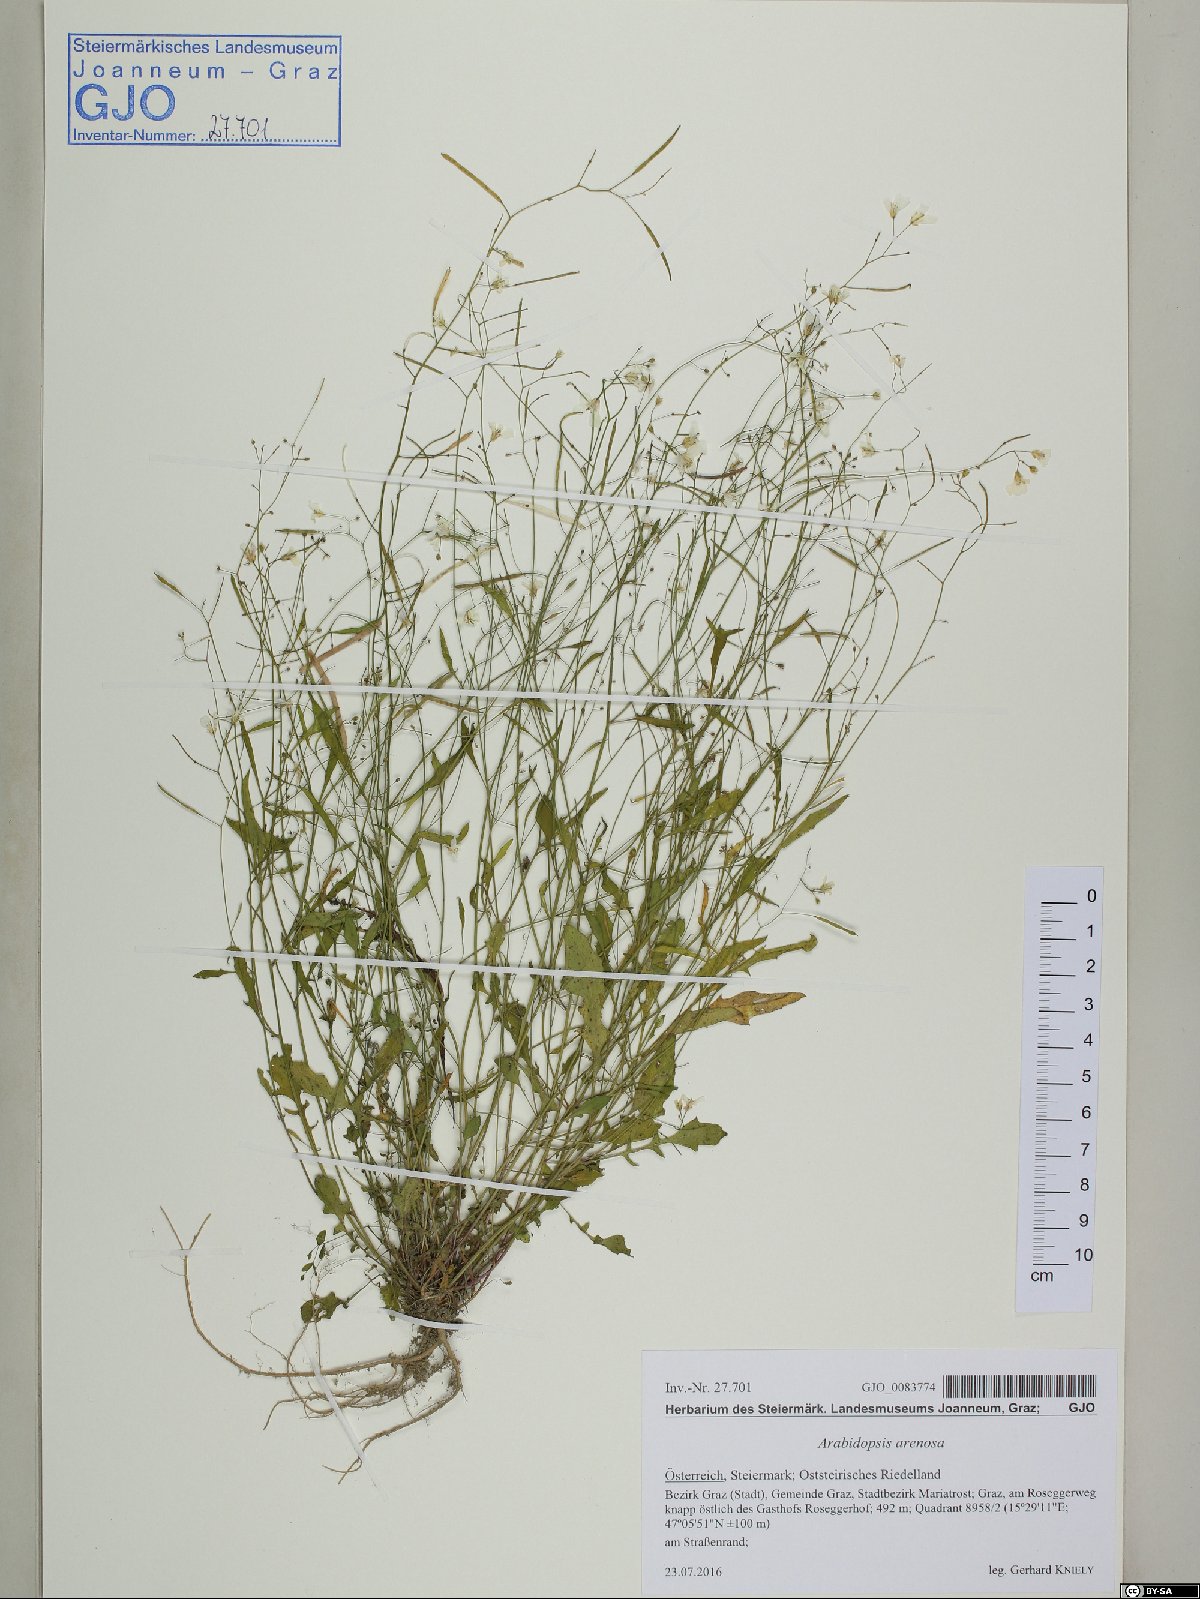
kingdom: Plantae
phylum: Tracheophyta
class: Magnoliopsida
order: Brassicales
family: Brassicaceae
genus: Arabidopsis
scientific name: Arabidopsis arenosa
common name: Sand rock-cress
